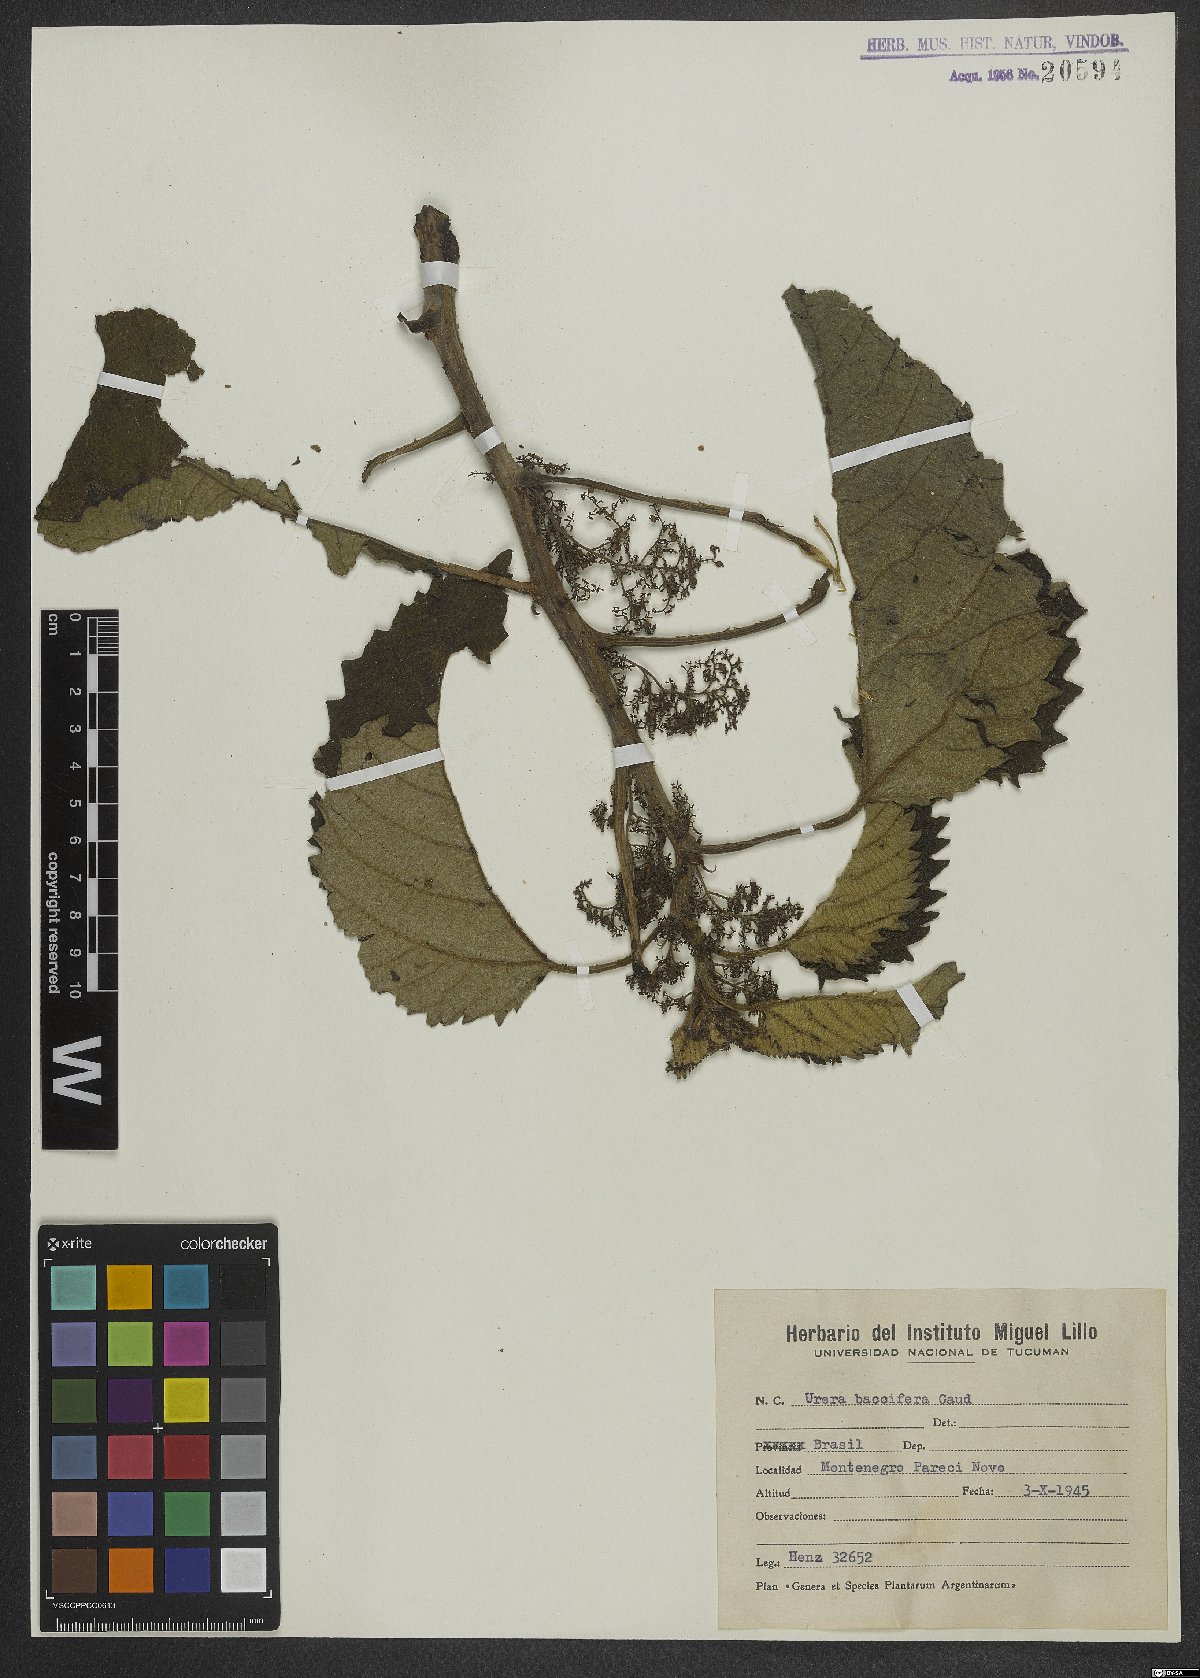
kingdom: Plantae
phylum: Tracheophyta
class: Magnoliopsida
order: Rosales
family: Urticaceae
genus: Urera
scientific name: Urera baccifera
